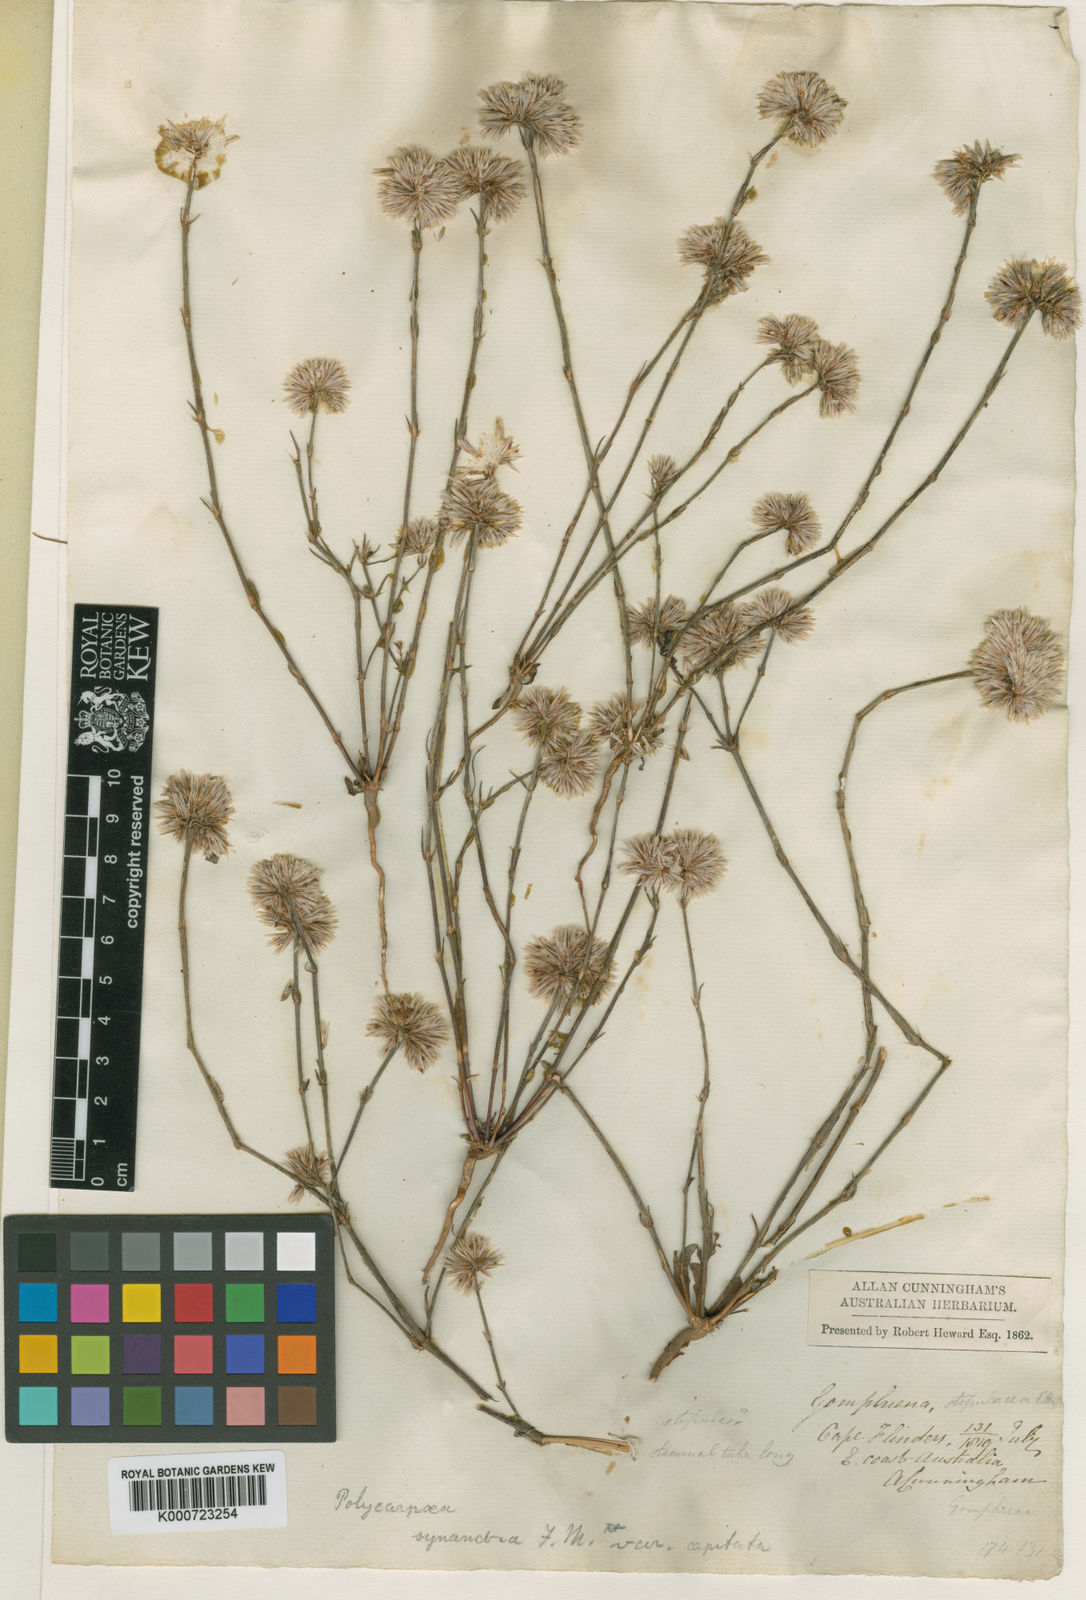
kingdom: Plantae
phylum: Tracheophyta
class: Magnoliopsida
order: Caryophyllales
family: Caryophyllaceae
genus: Polycarpaea
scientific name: Polycarpaea spirostylis
